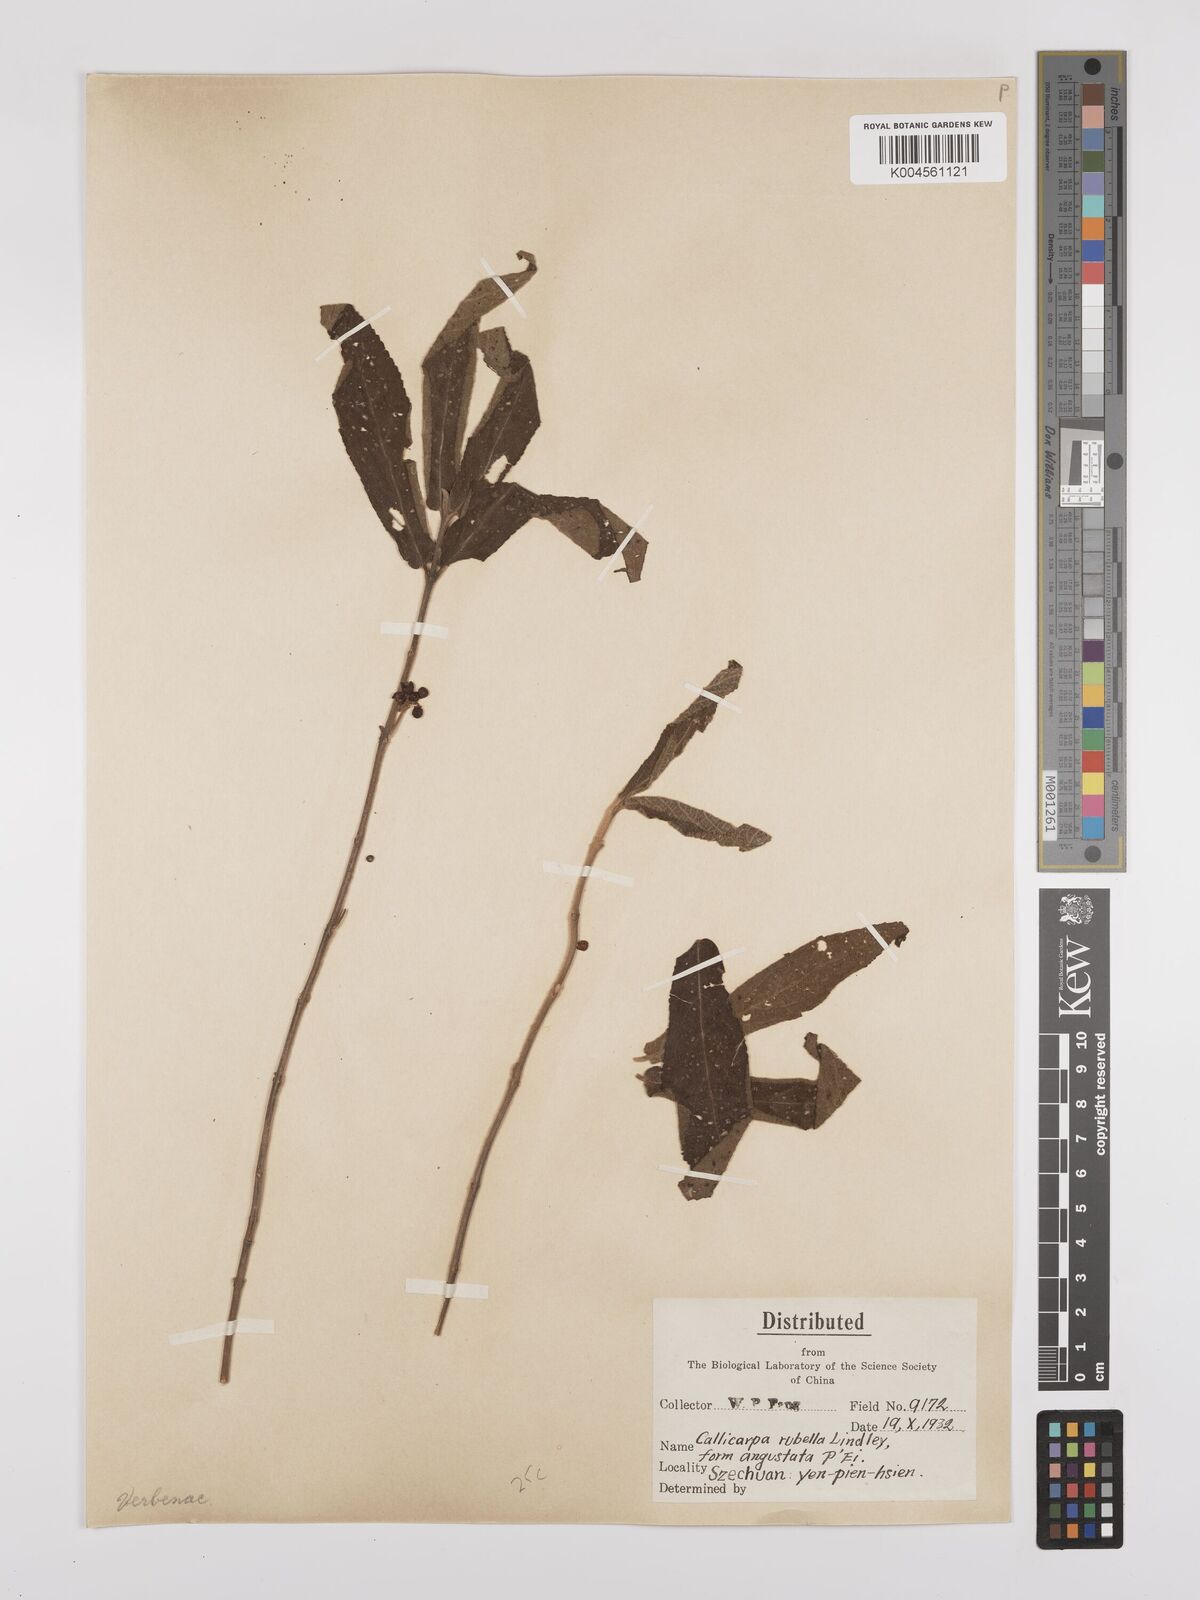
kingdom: Plantae
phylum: Tracheophyta
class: Magnoliopsida
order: Lamiales
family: Lamiaceae
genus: Callicarpa
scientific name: Callicarpa rubella
